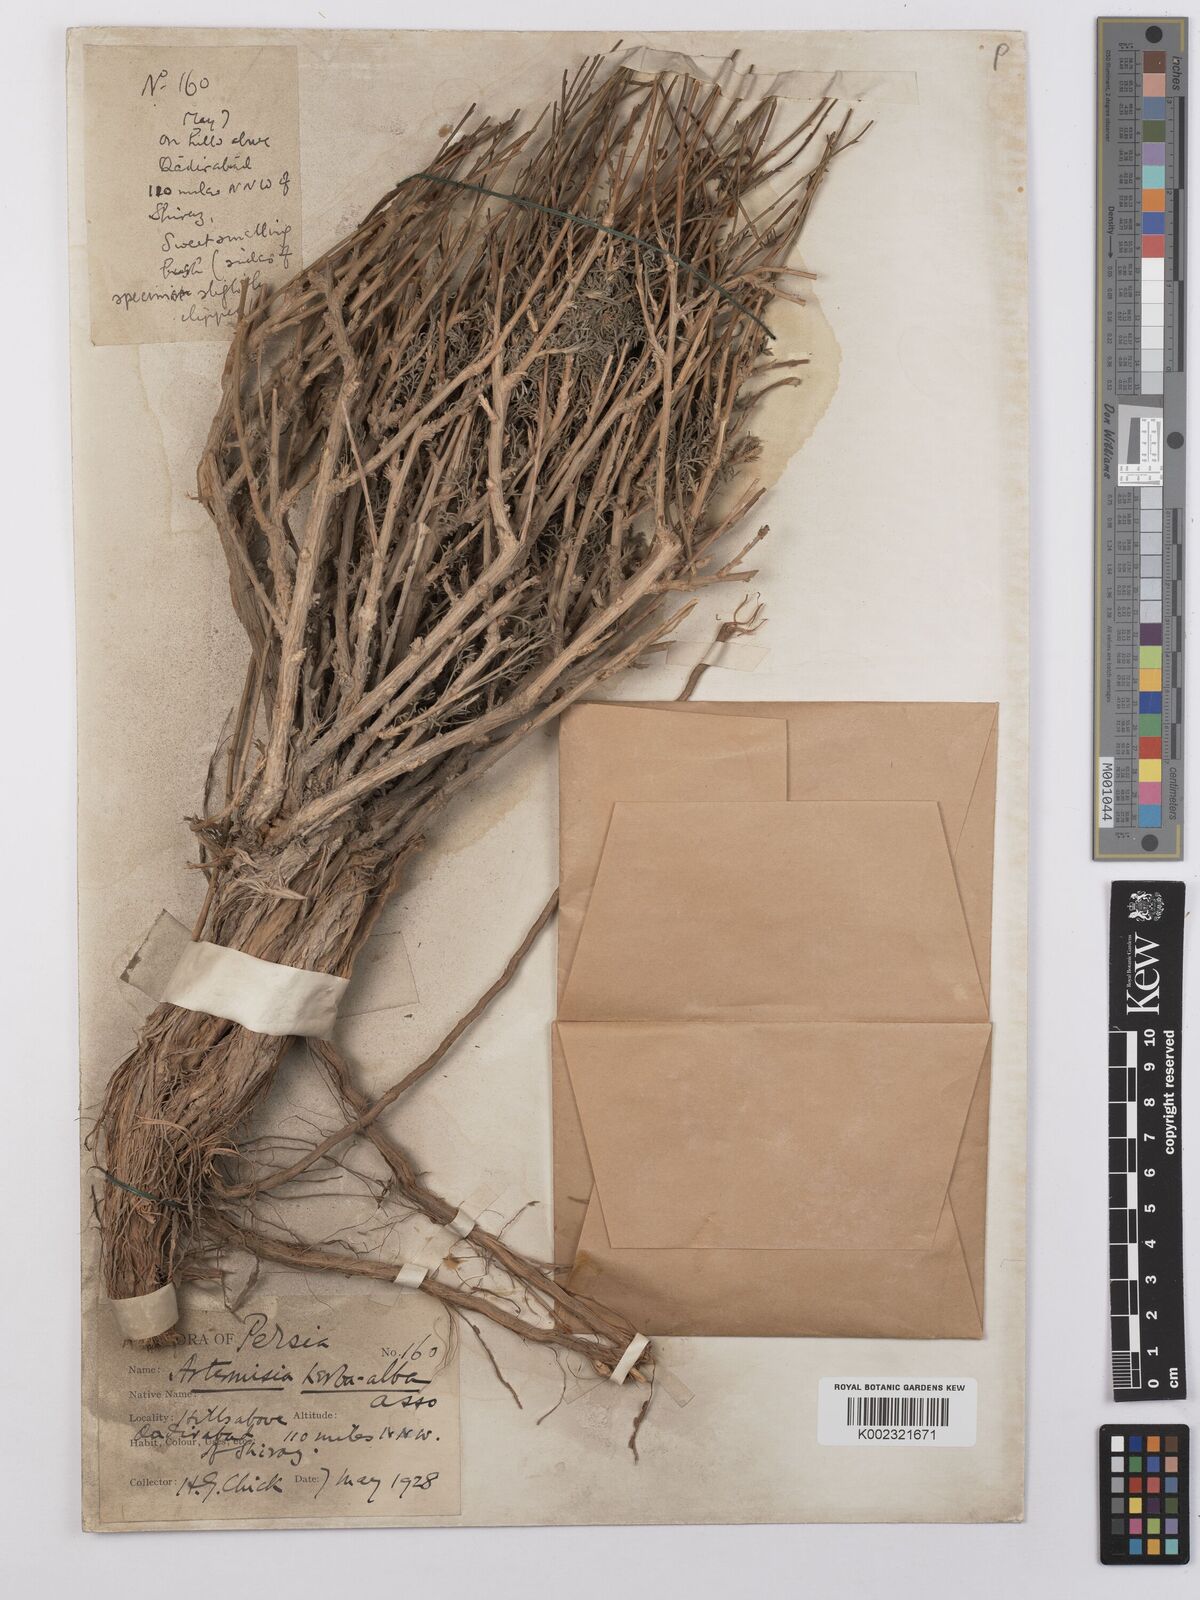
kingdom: Plantae
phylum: Tracheophyta
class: Magnoliopsida
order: Asterales
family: Asteraceae
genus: Artemisia
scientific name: Artemisia herba-alba
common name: White wormwood
